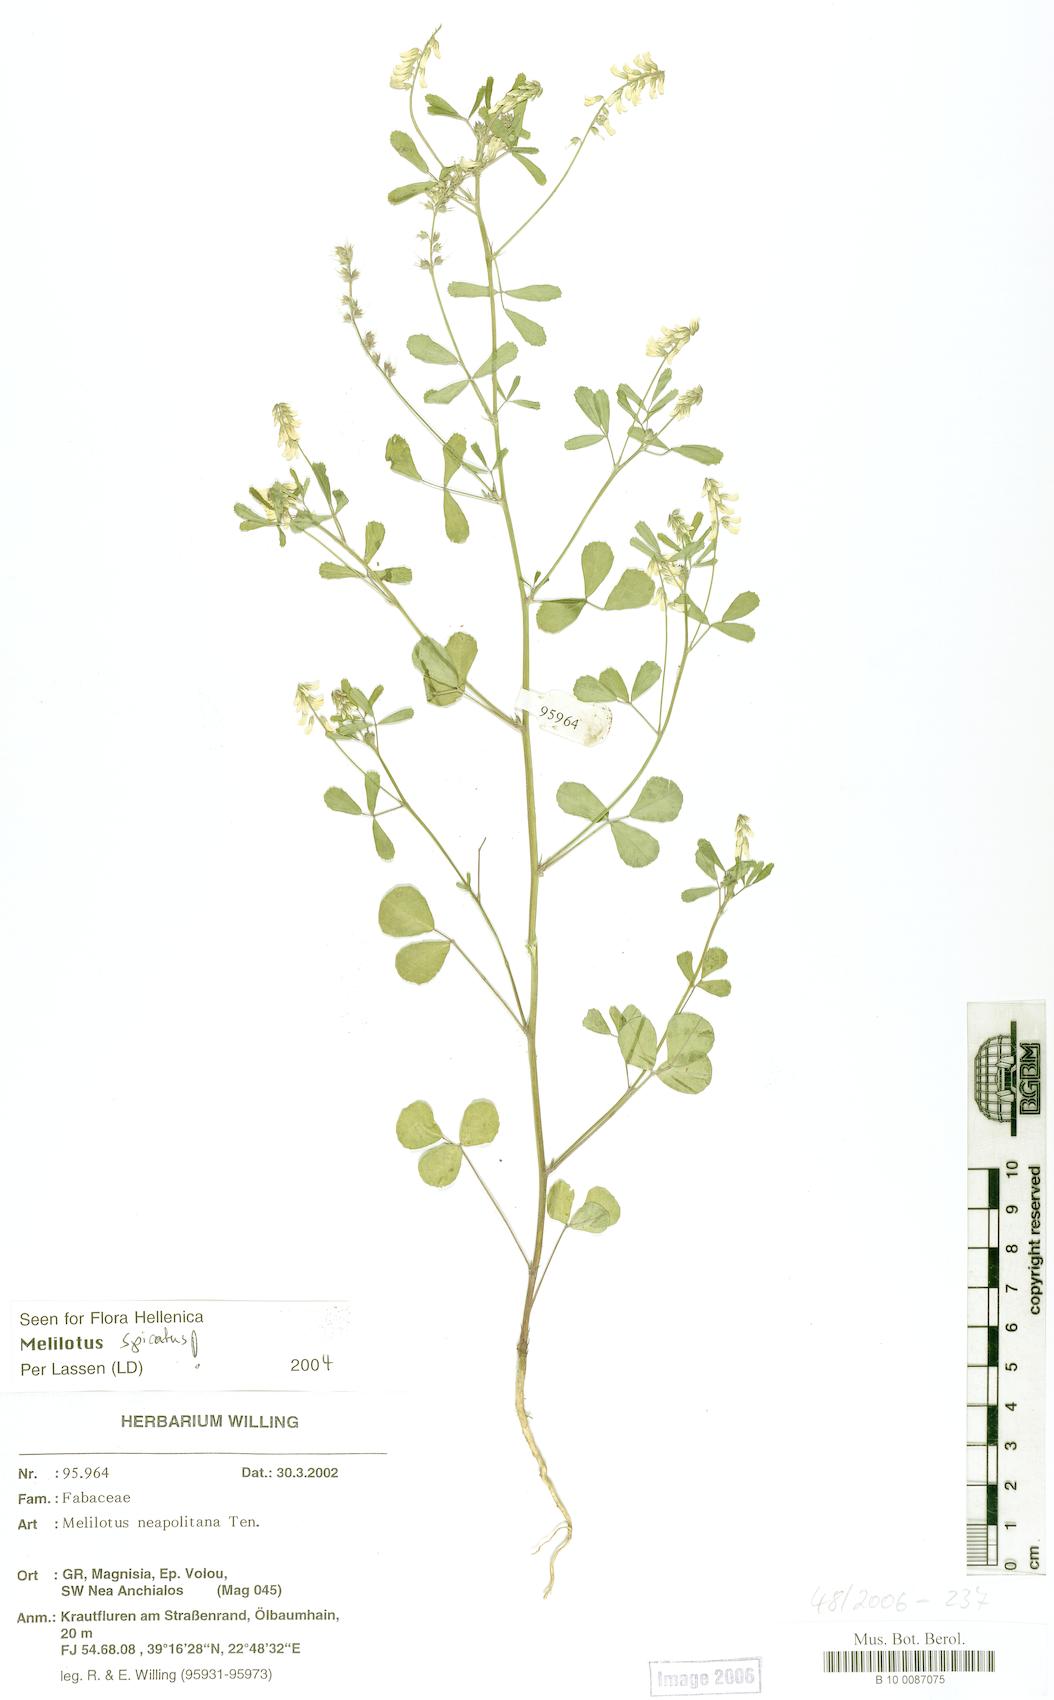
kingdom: Plantae
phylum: Tracheophyta
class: Magnoliopsida
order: Fabales
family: Fabaceae
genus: Melilotus
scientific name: Melilotus neapolitanus
